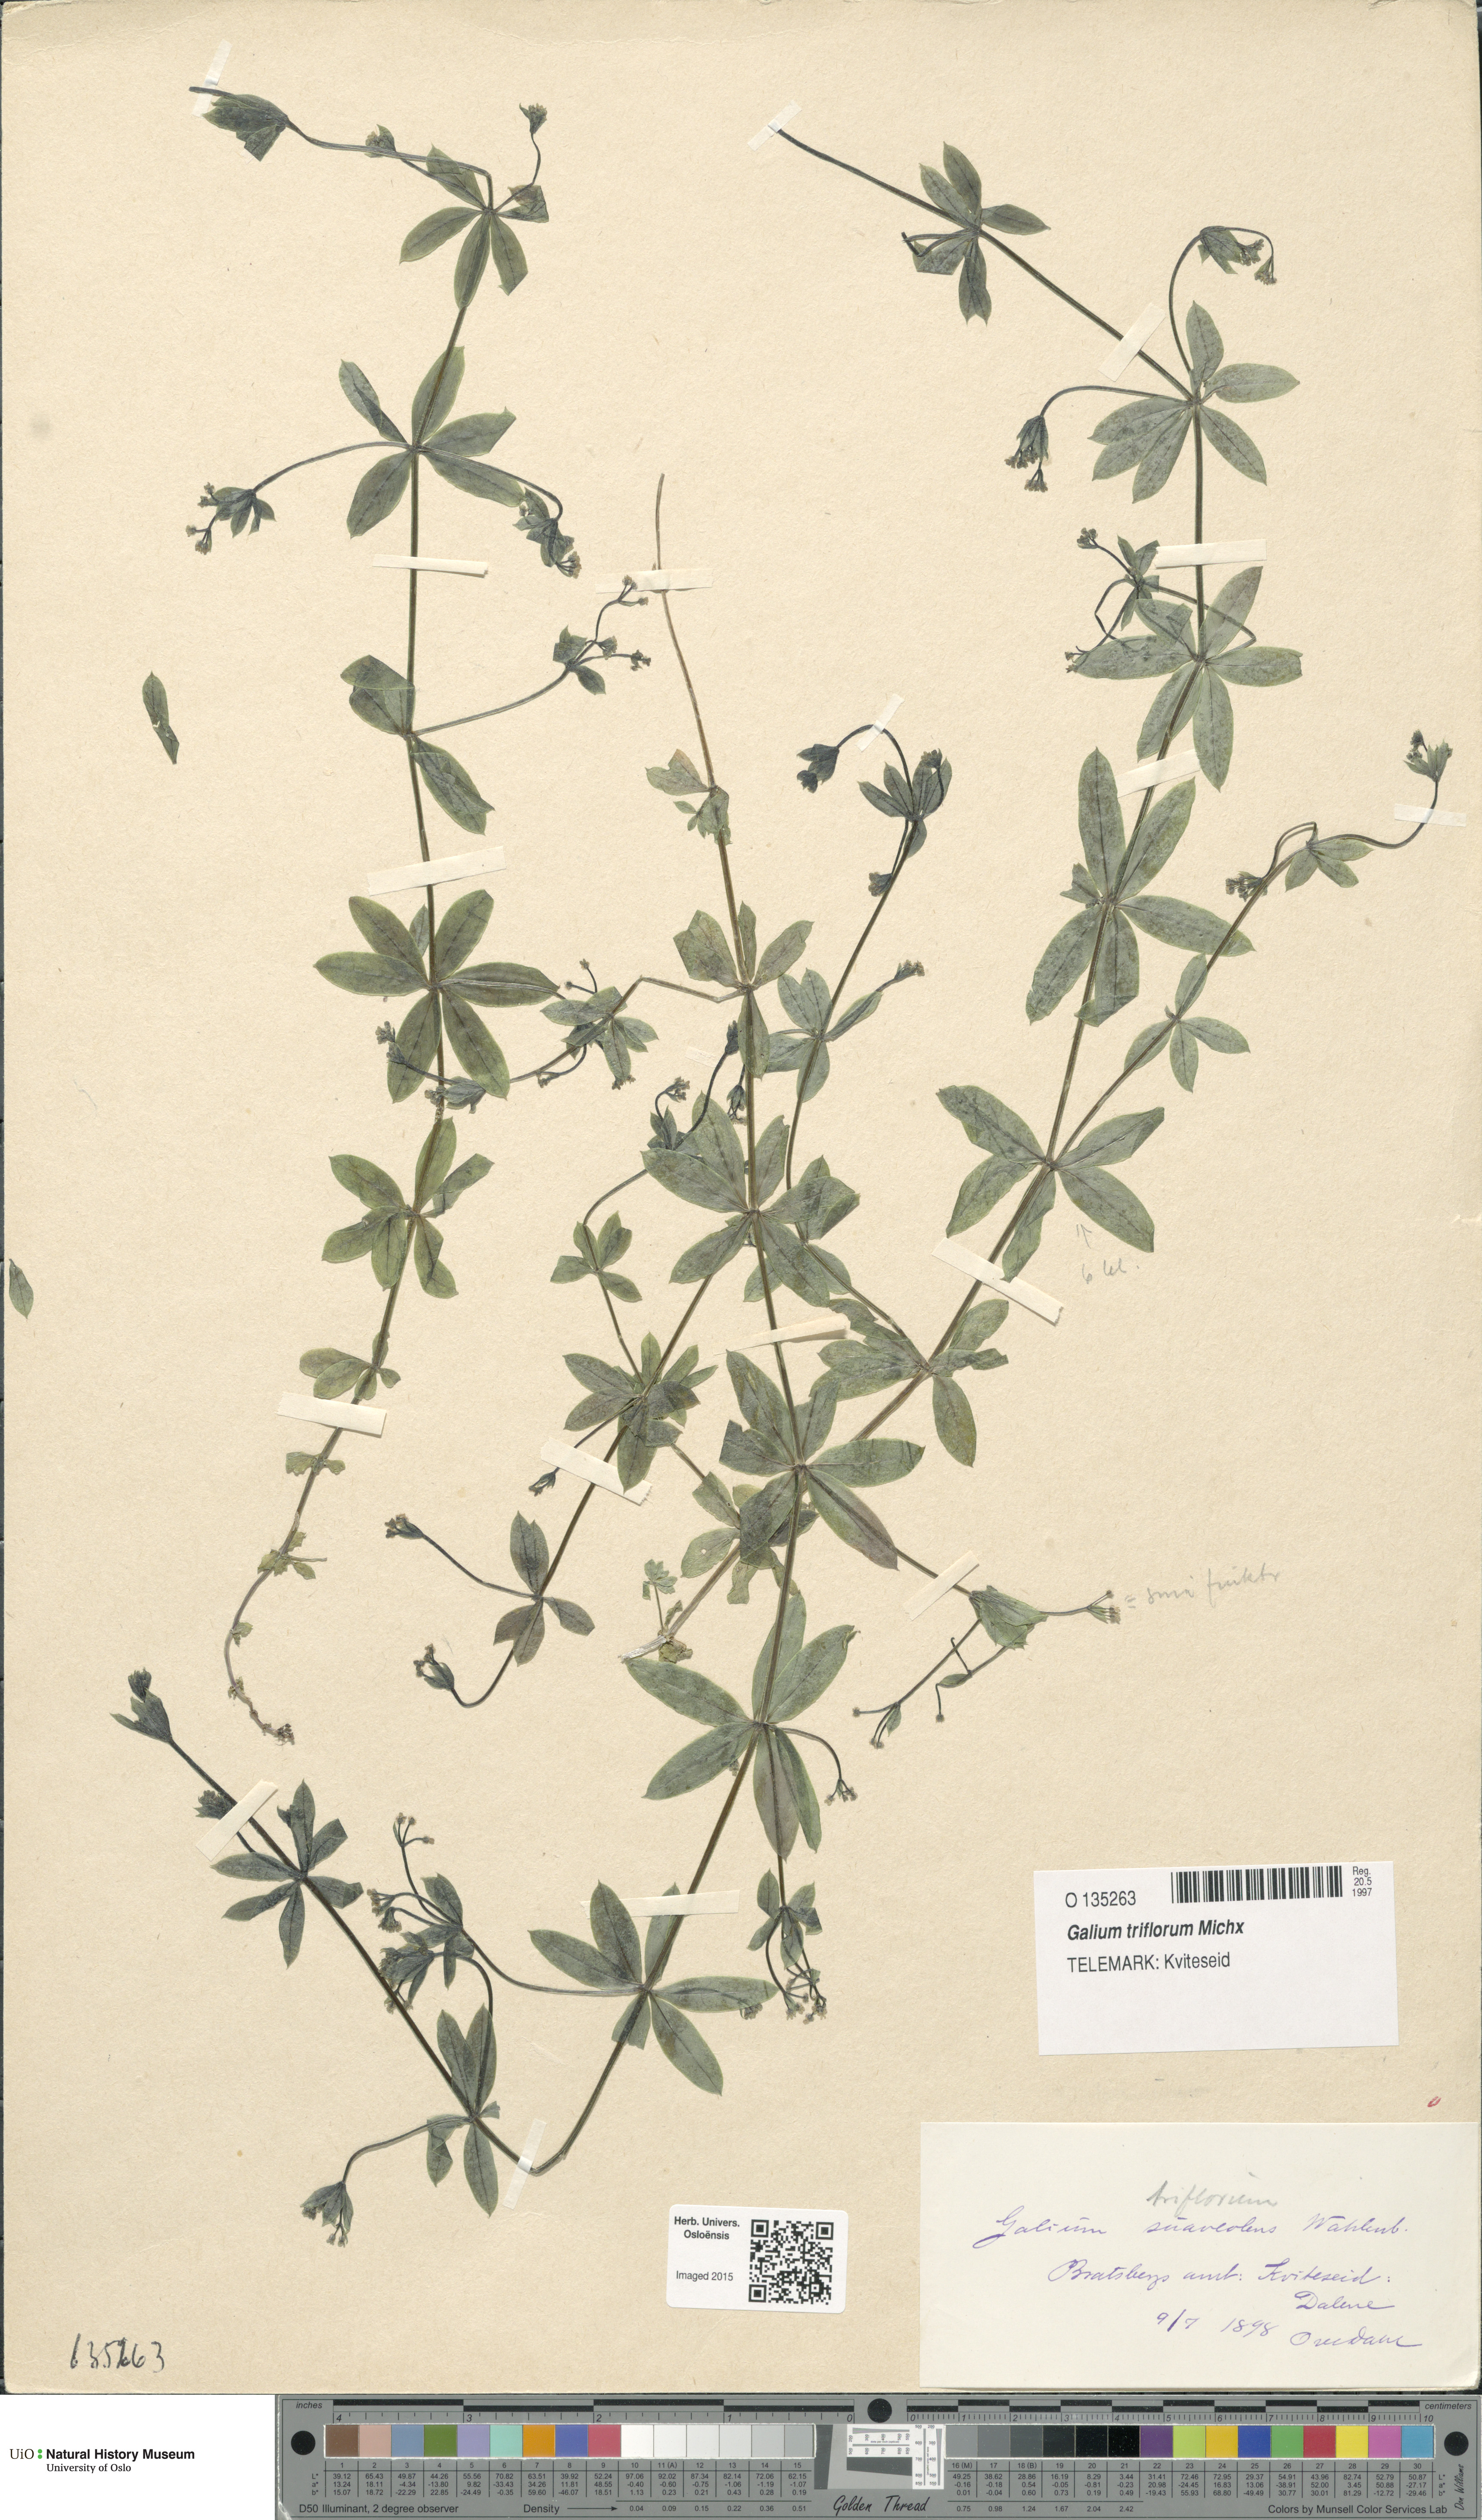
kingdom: Plantae
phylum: Tracheophyta
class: Magnoliopsida
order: Gentianales
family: Rubiaceae
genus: Galium
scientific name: Galium triflorum
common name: Fragrant bedstraw
